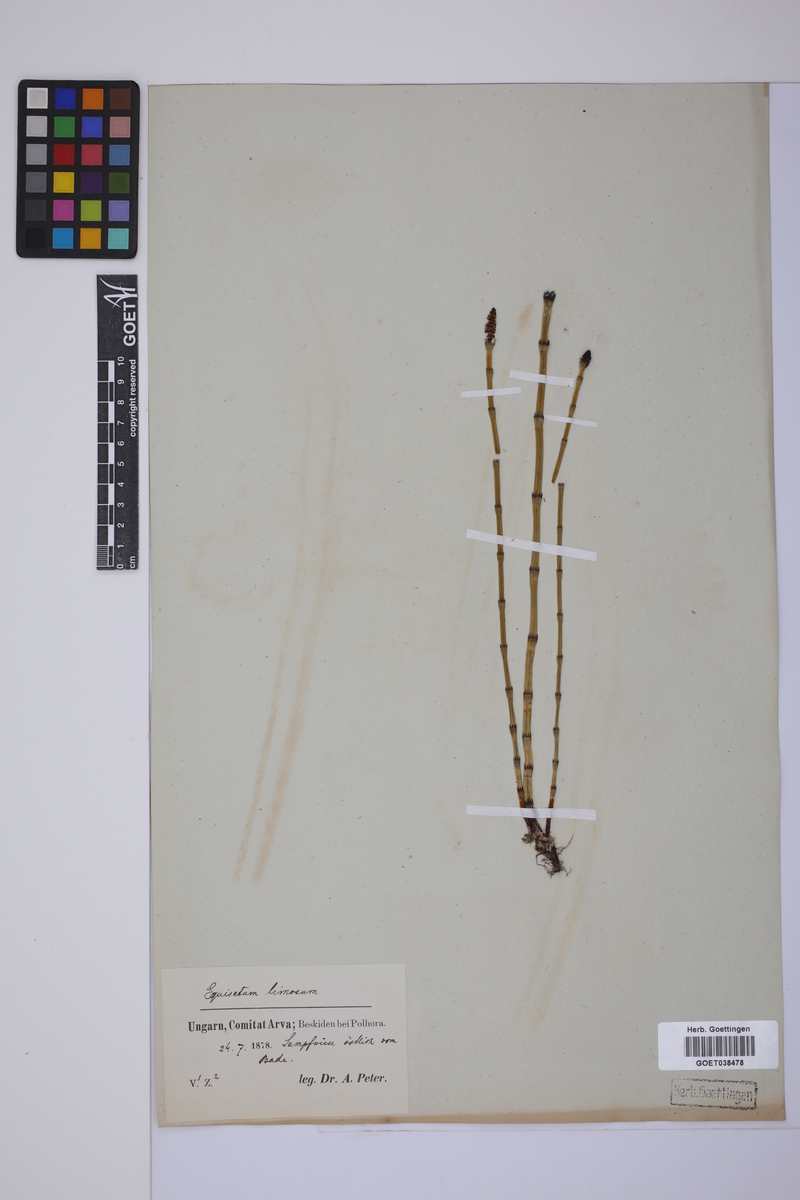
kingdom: Plantae
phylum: Tracheophyta
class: Polypodiopsida
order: Equisetales
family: Equisetaceae
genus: Equisetum
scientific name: Equisetum fluviatile
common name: Water horsetail
